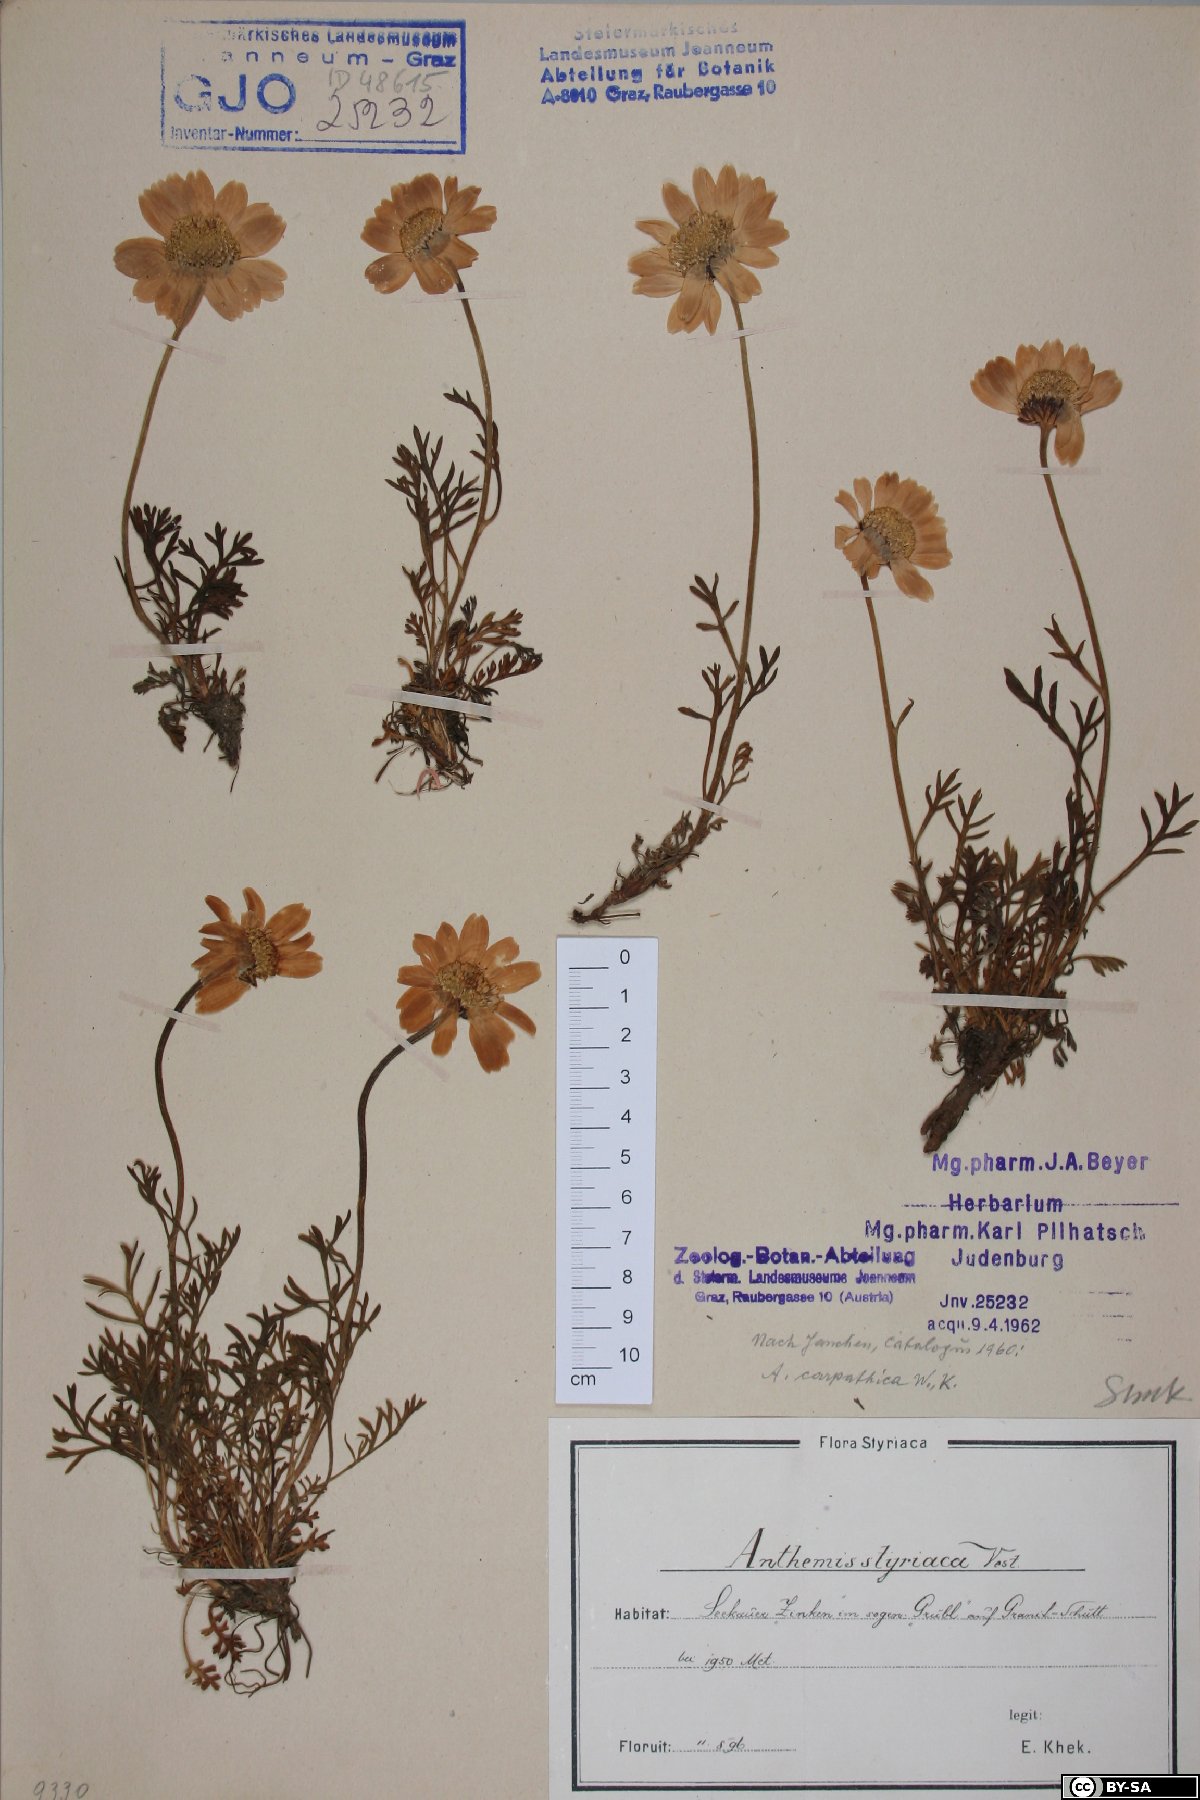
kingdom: Plantae
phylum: Tracheophyta
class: Magnoliopsida
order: Asterales
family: Asteraceae
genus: Anthemis
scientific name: Anthemis cretica
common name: Mountain dog-daisy
